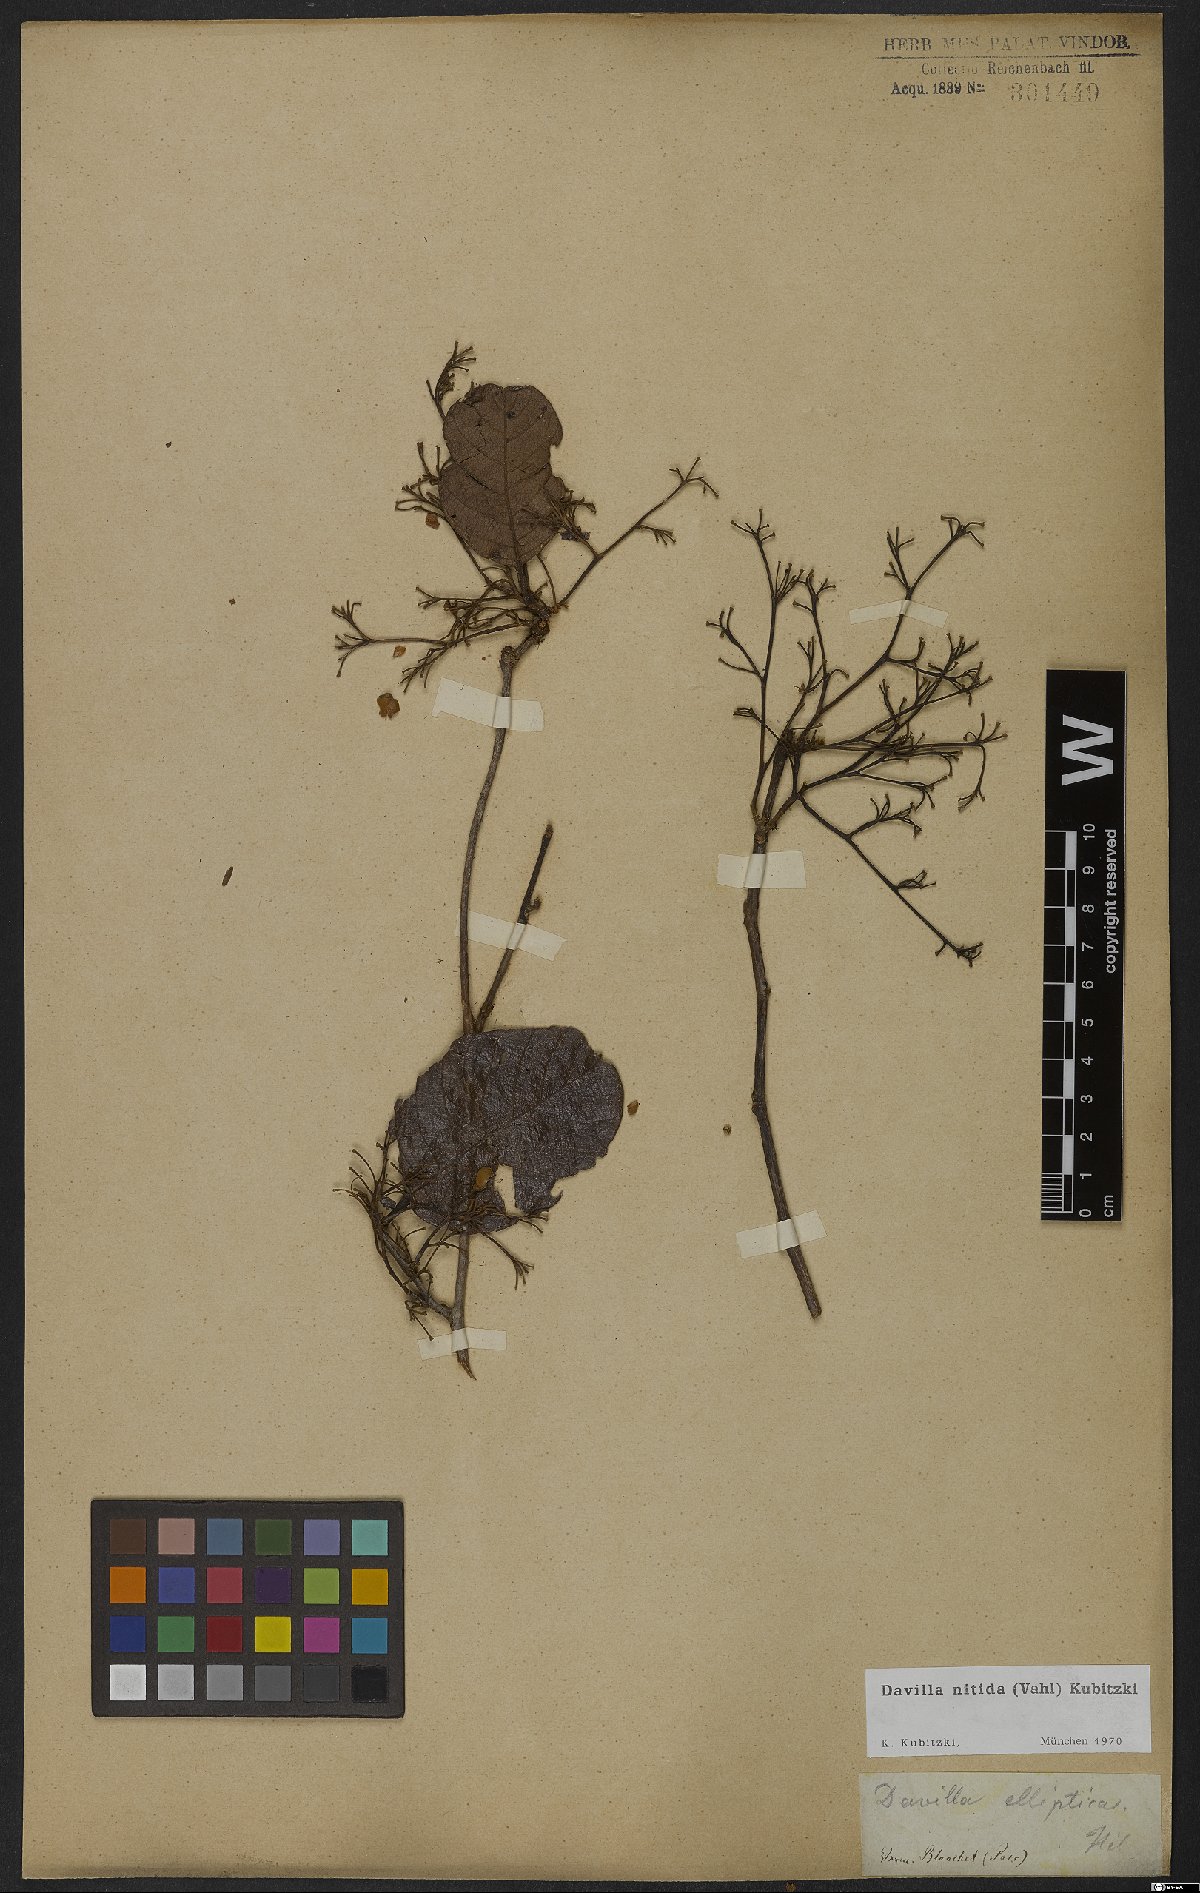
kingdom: Plantae
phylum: Tracheophyta
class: Magnoliopsida
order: Dilleniales
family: Dilleniaceae
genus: Davilla
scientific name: Davilla nitida
